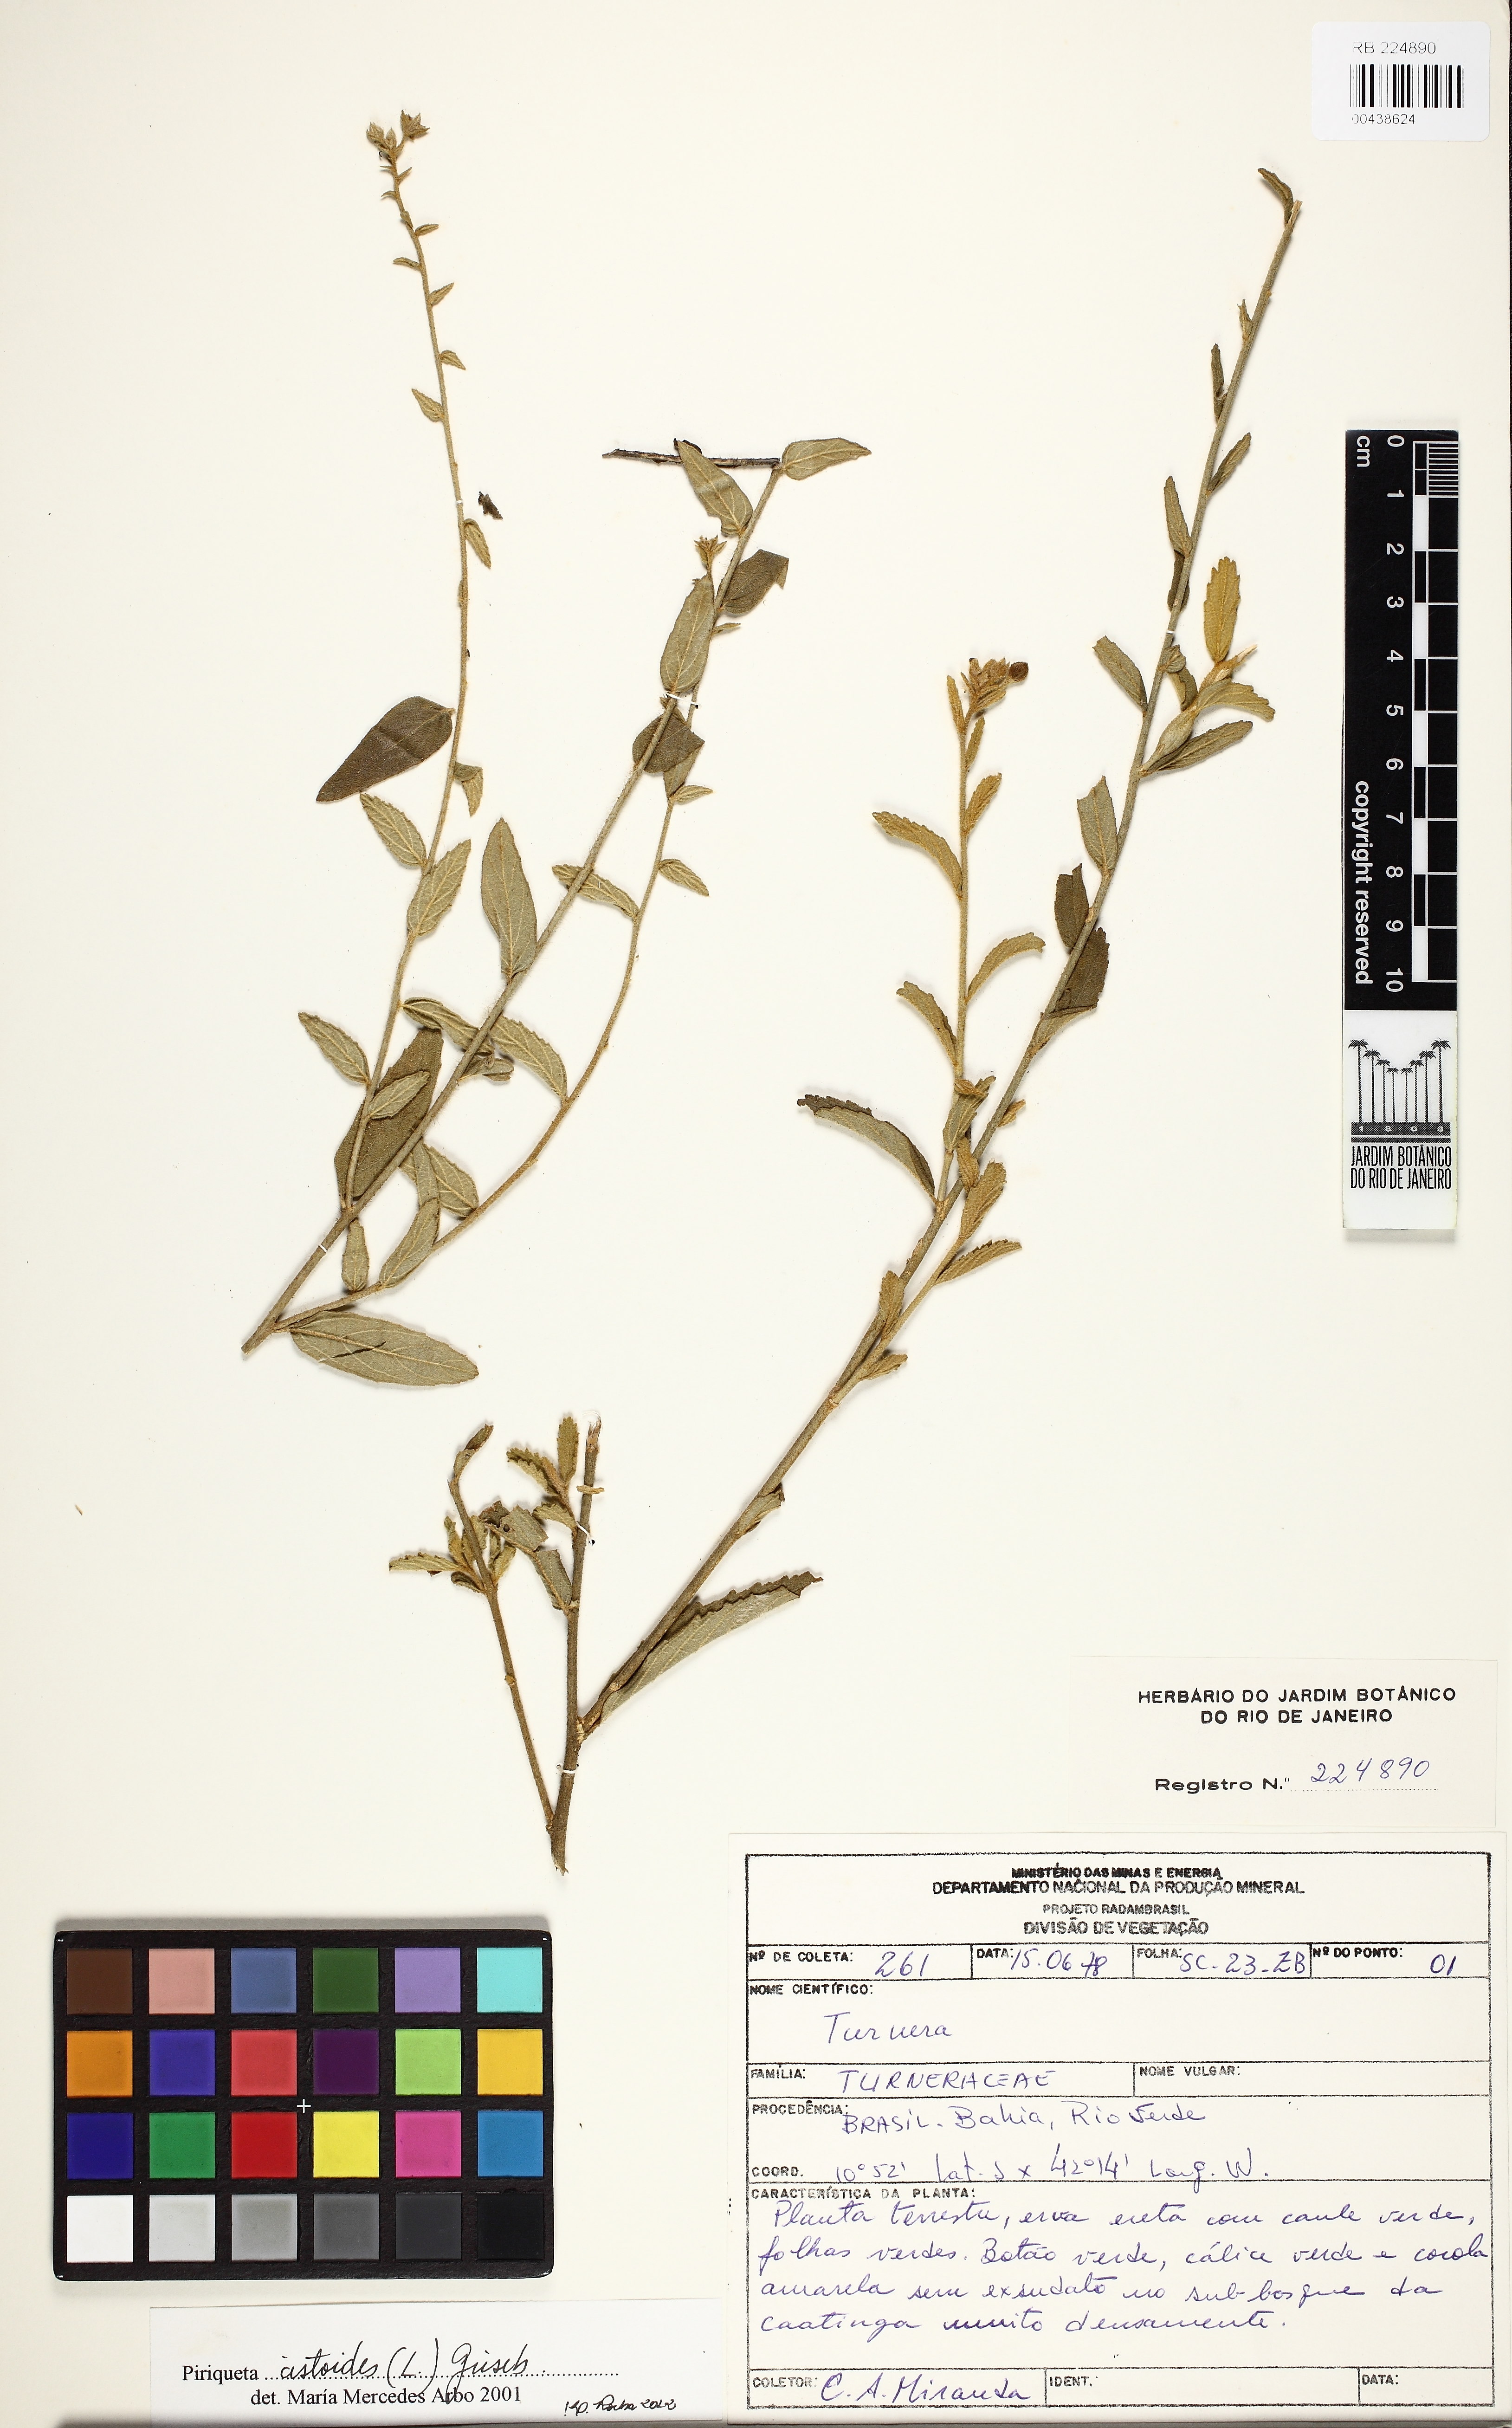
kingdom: Plantae
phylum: Tracheophyta
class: Magnoliopsida
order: Malpighiales
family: Turneraceae
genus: Piriqueta
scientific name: Piriqueta cistoides
